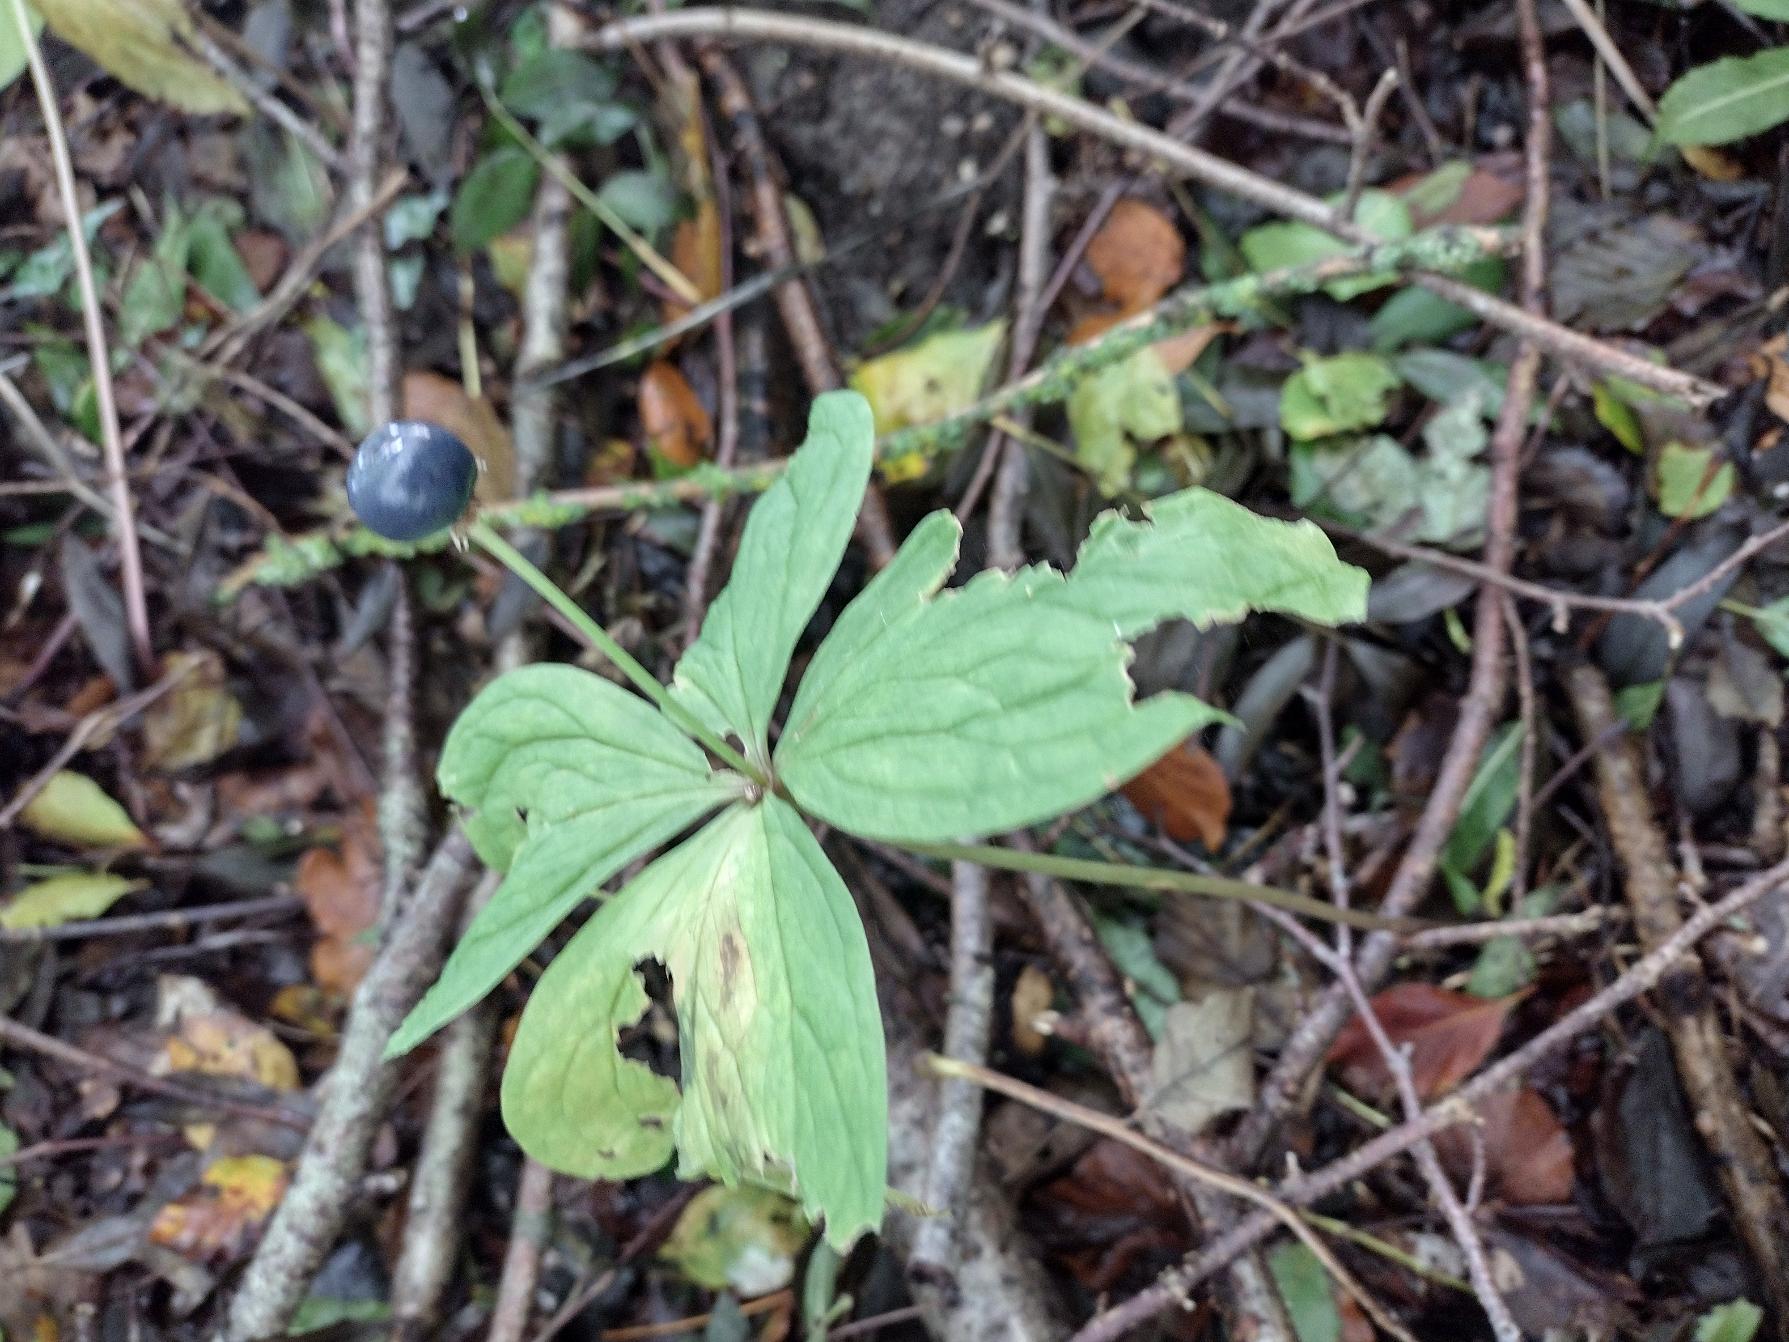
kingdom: Plantae
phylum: Tracheophyta
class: Liliopsida
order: Liliales
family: Melanthiaceae
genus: Paris
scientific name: Paris quadrifolia
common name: Firblad
